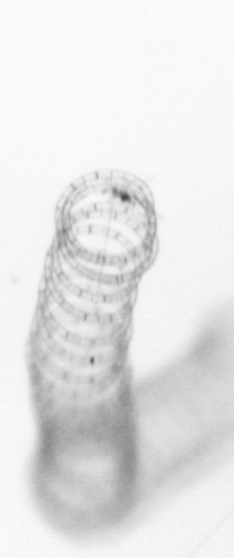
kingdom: Chromista
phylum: Ochrophyta
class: Bacillariophyceae
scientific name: Bacillariophyceae
